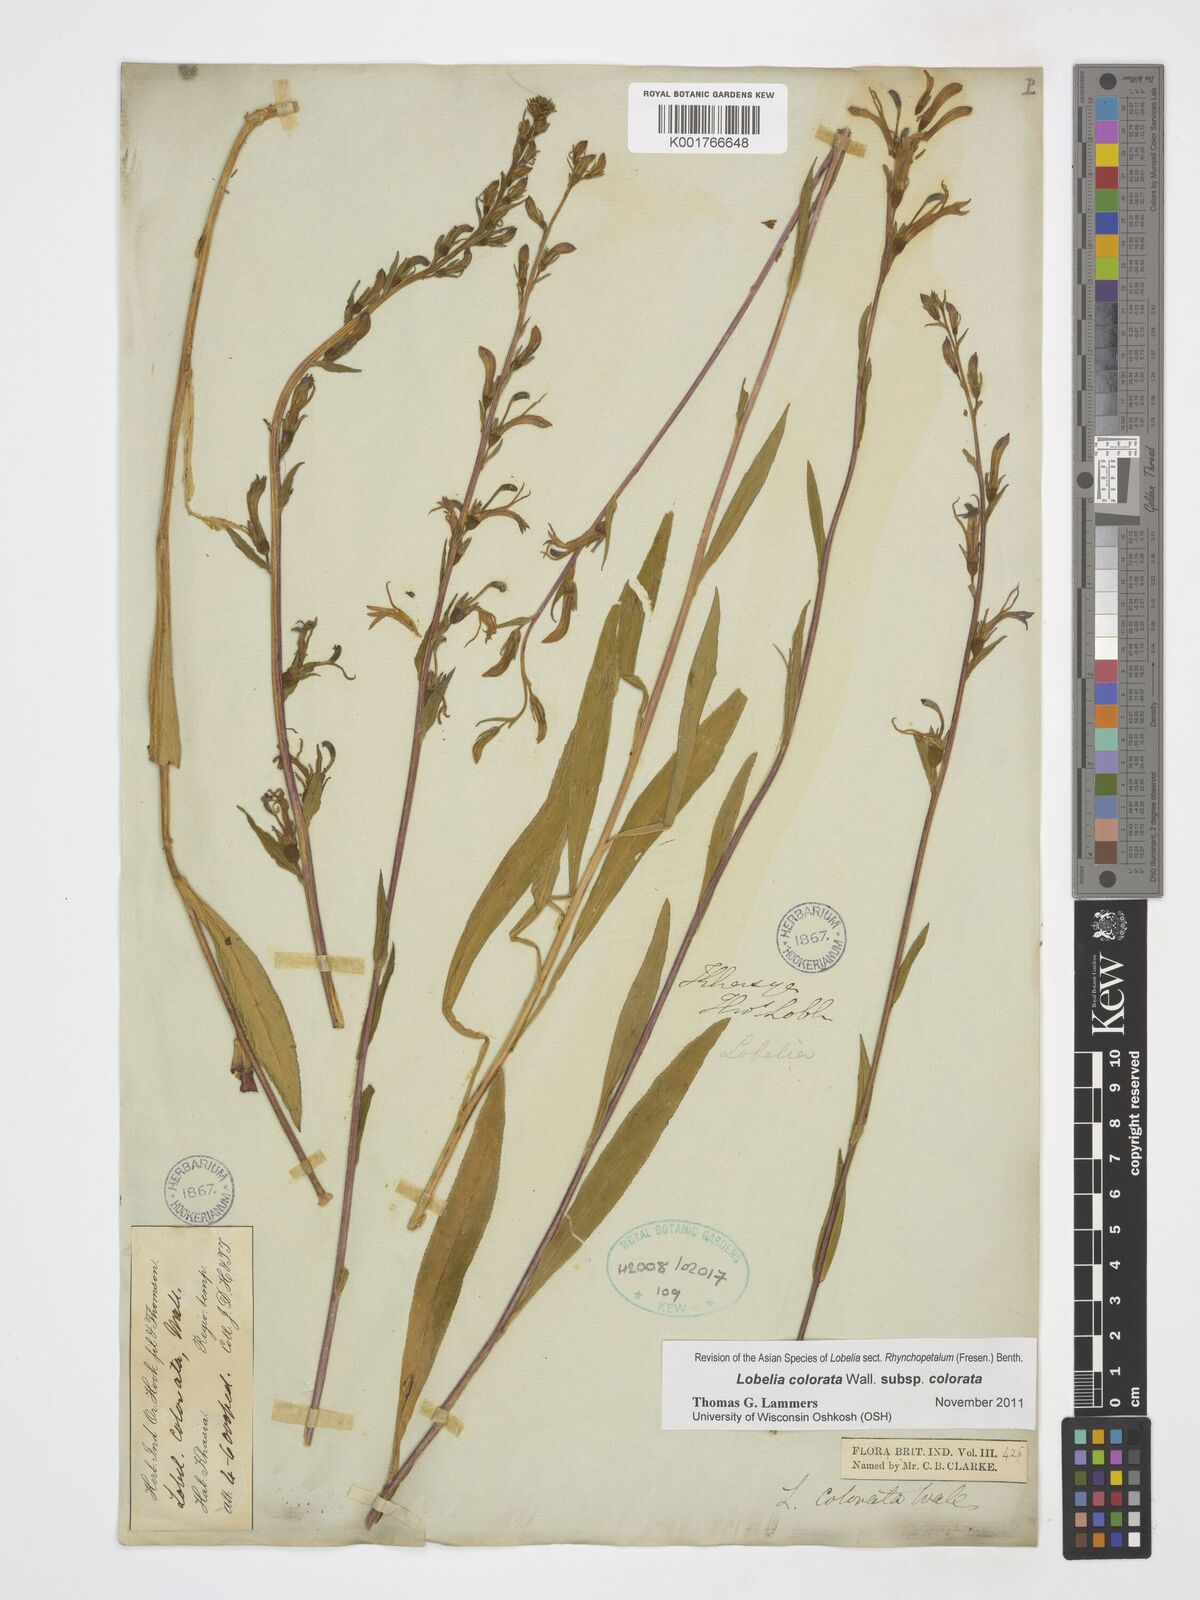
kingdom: Plantae
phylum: Tracheophyta
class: Magnoliopsida
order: Asterales
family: Campanulaceae
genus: Lobelia
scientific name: Lobelia nicotianifolia
